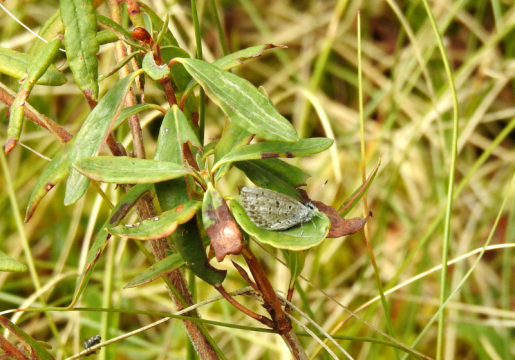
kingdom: Animalia
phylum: Arthropoda
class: Insecta
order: Lepidoptera
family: Lycaenidae
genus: Celastrina
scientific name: Celastrina lucia
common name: Northern Spring Azure
